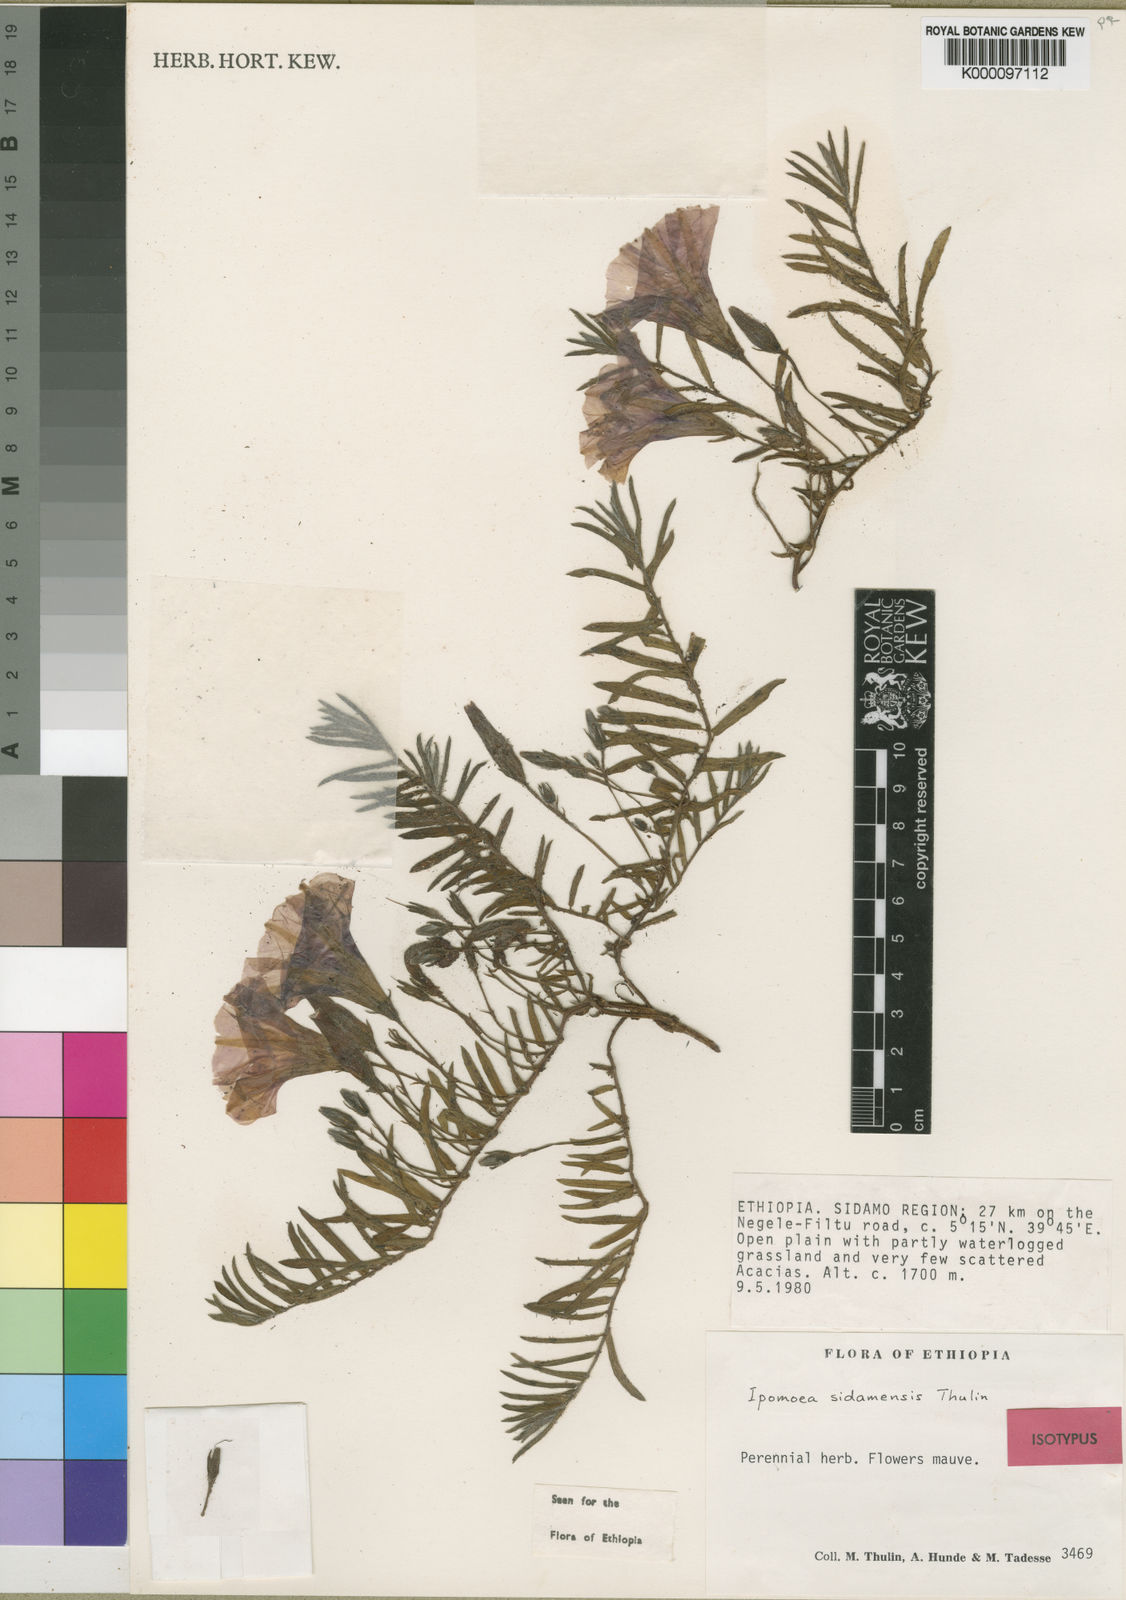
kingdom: Plantae
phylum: Tracheophyta
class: Magnoliopsida
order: Solanales
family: Convolvulaceae
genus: Ipomoea
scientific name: Ipomoea sidamensis
